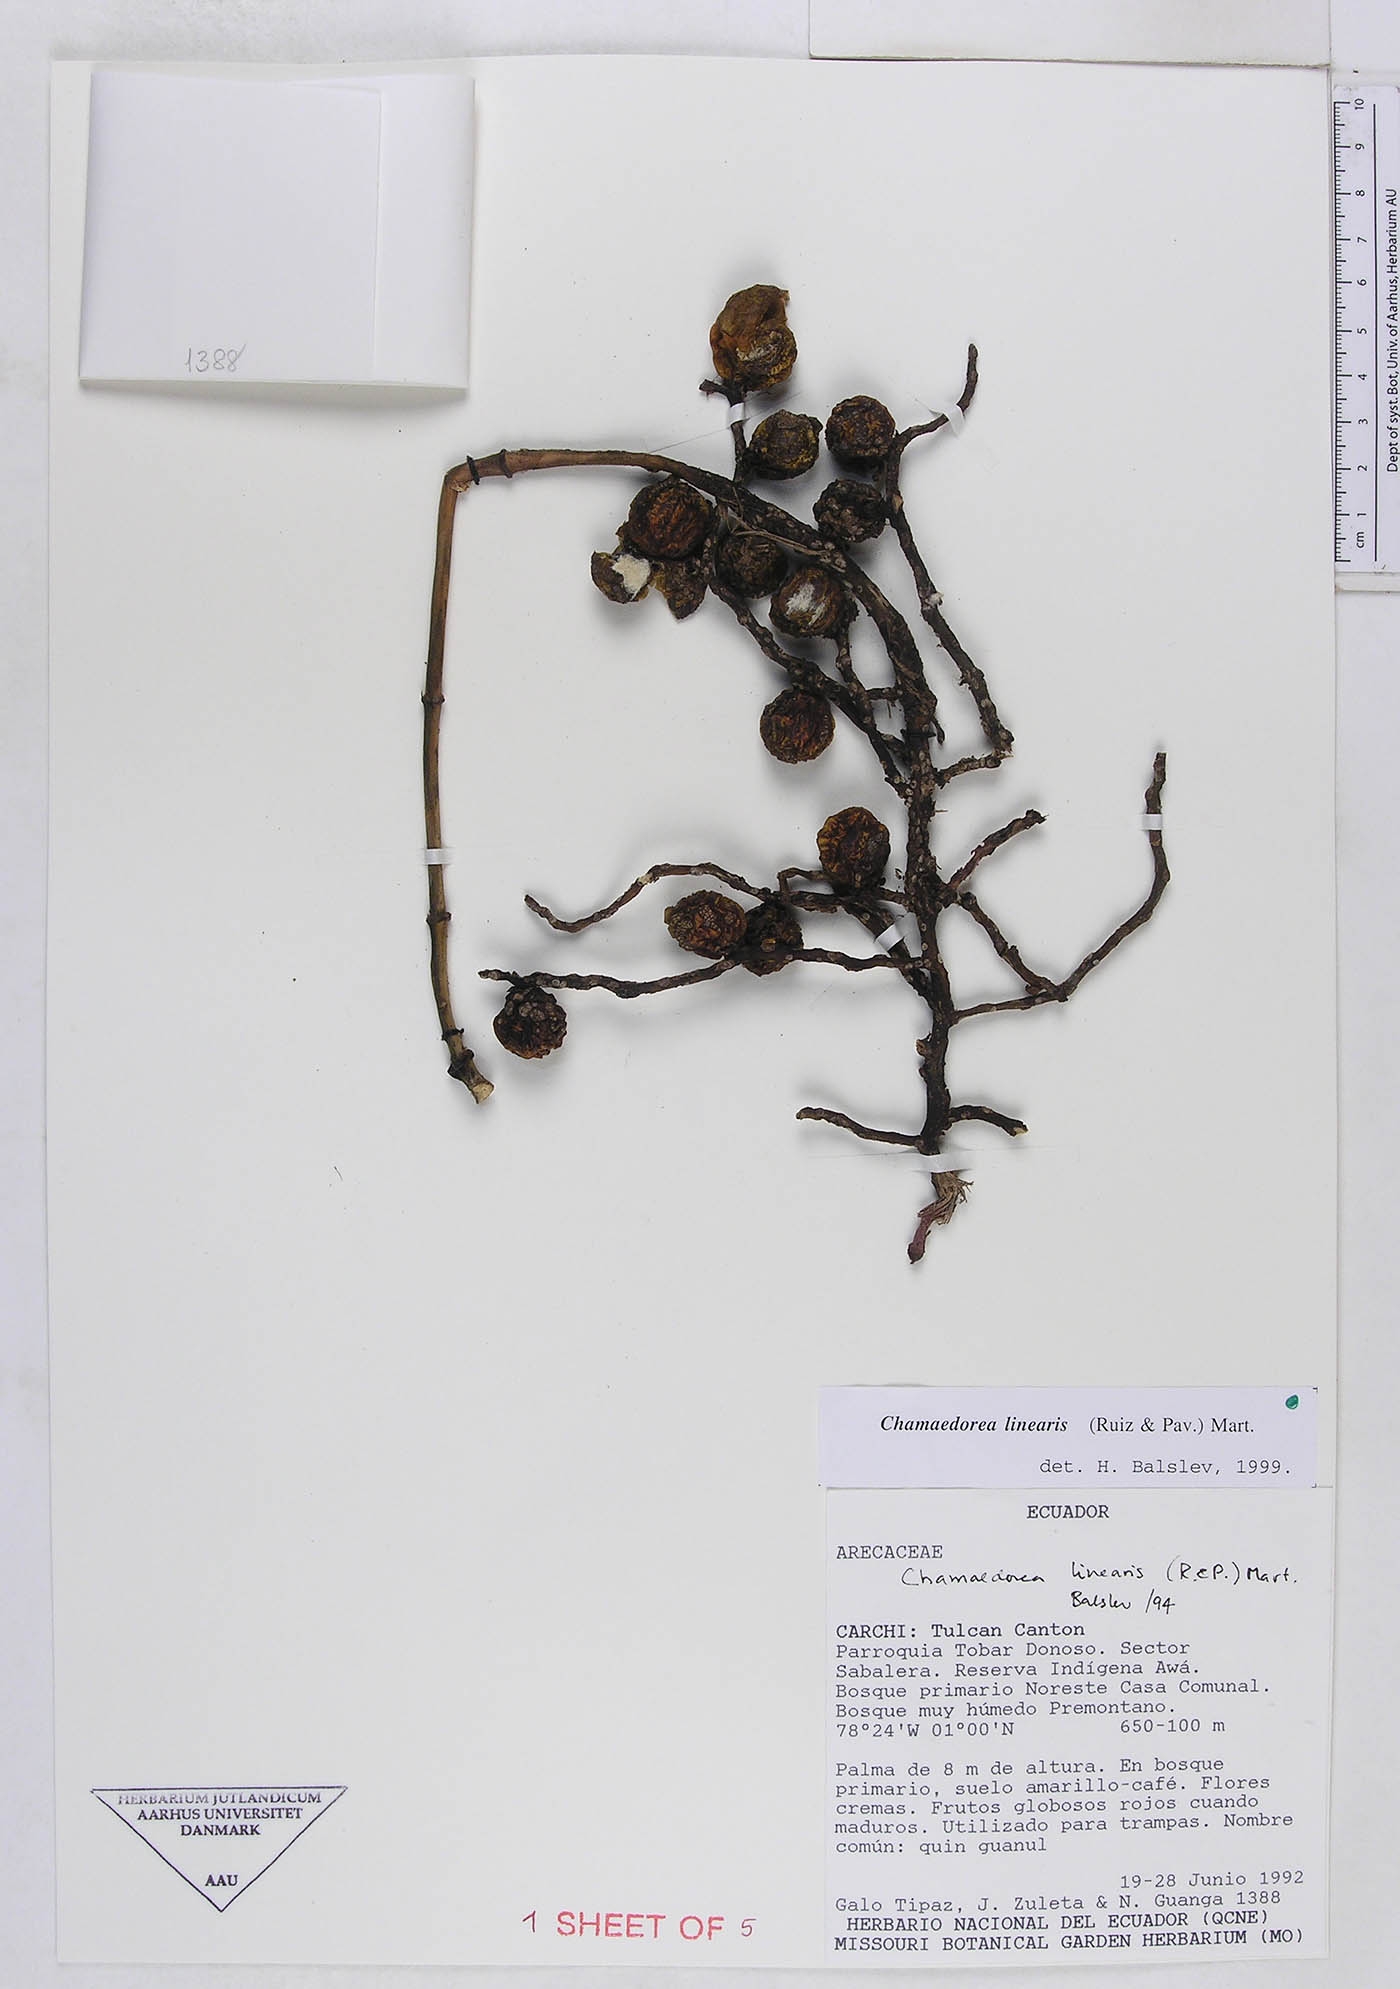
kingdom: Plantae
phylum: Tracheophyta
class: Liliopsida
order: Arecales
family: Arecaceae
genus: Chamaedorea
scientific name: Chamaedorea linearis
